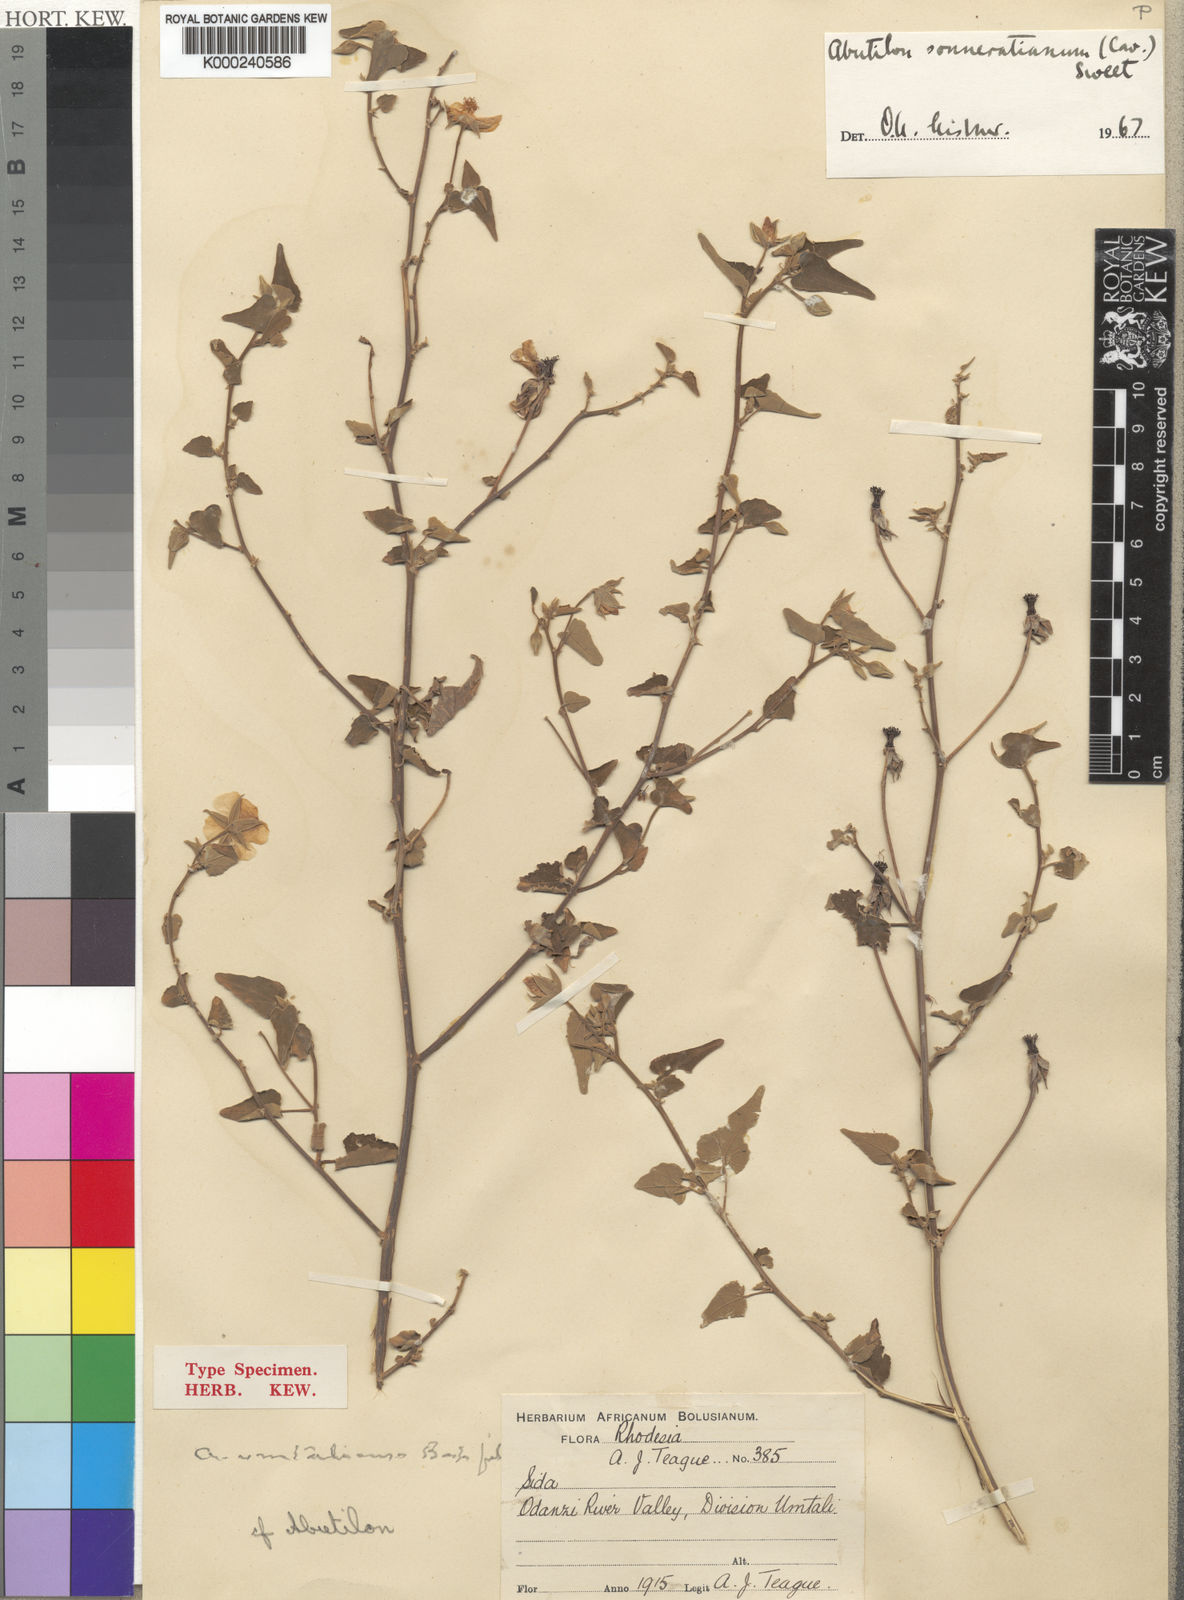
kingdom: Plantae
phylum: Tracheophyta
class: Magnoliopsida
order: Malvales
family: Malvaceae
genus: Abutilon
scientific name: Abutilon sonneratianum
